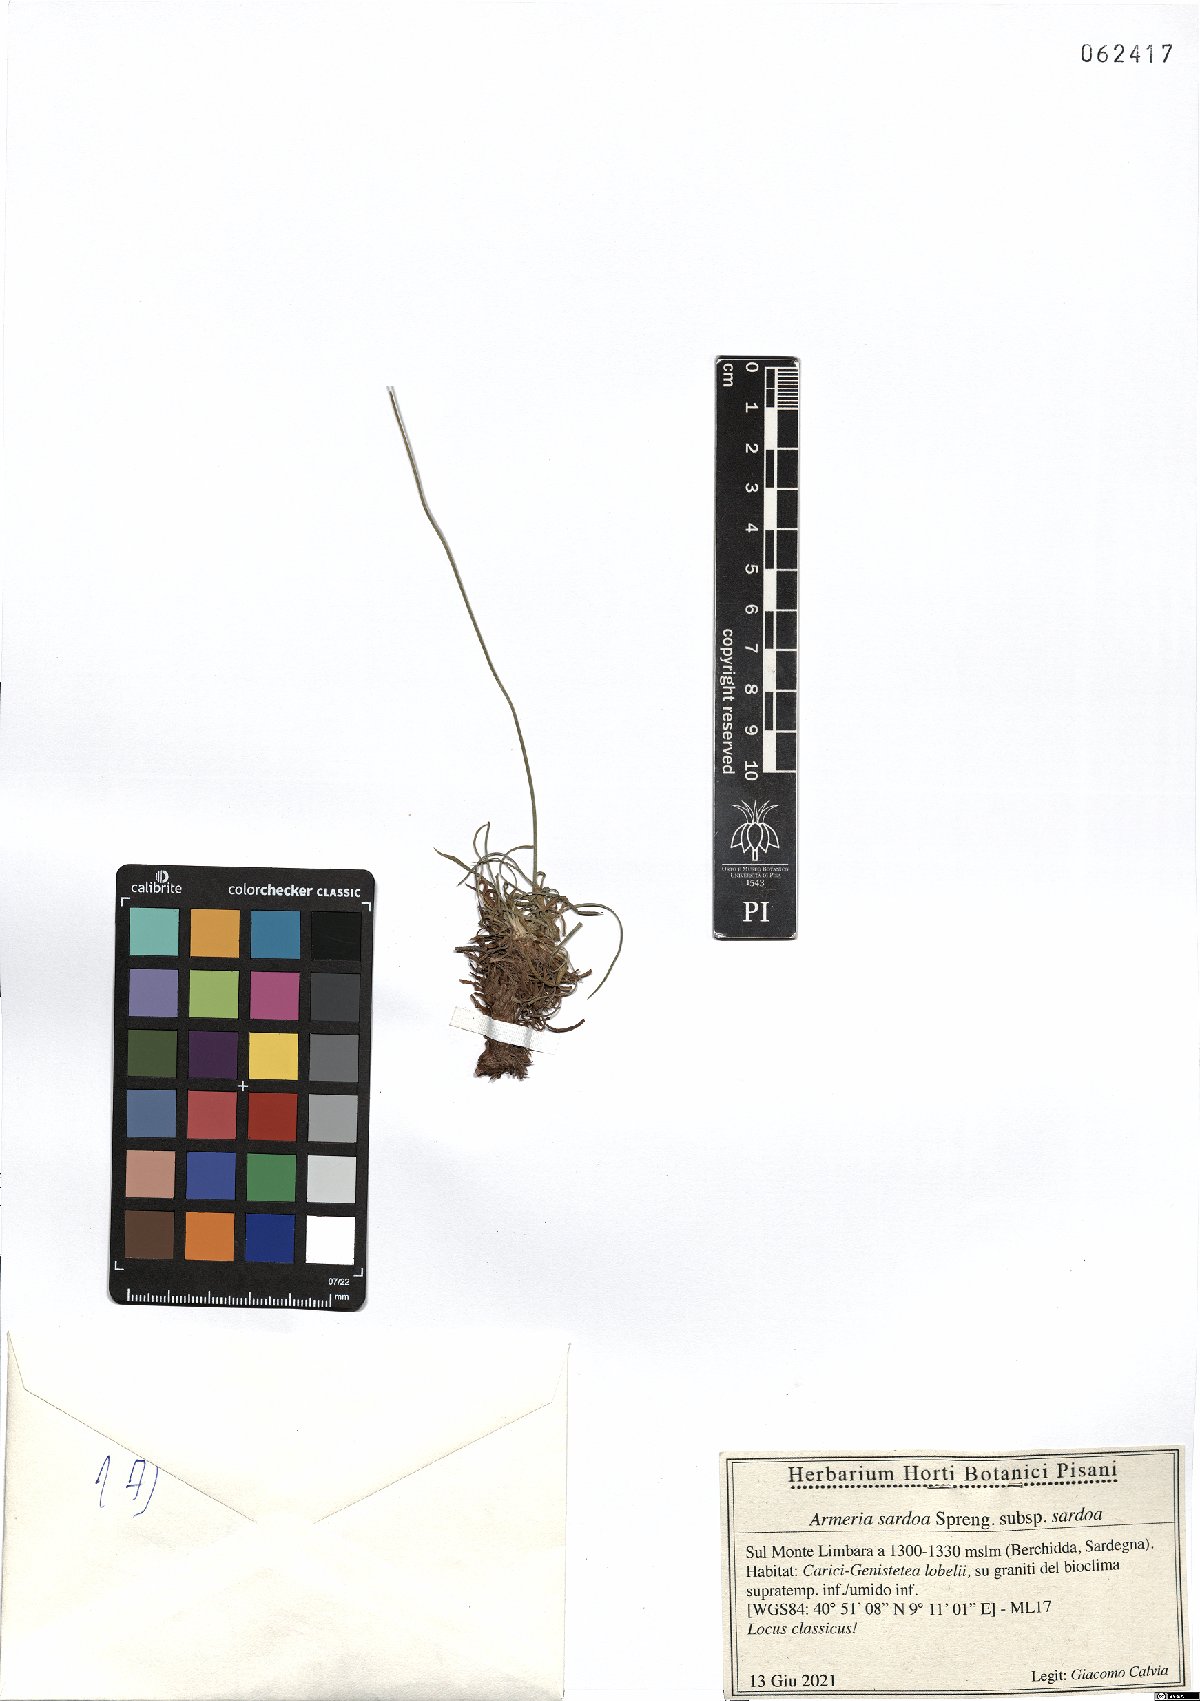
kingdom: Plantae
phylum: Tracheophyta
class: Magnoliopsida
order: Caryophyllales
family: Plumbaginaceae
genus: Armeria
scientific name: Armeria sardoa
